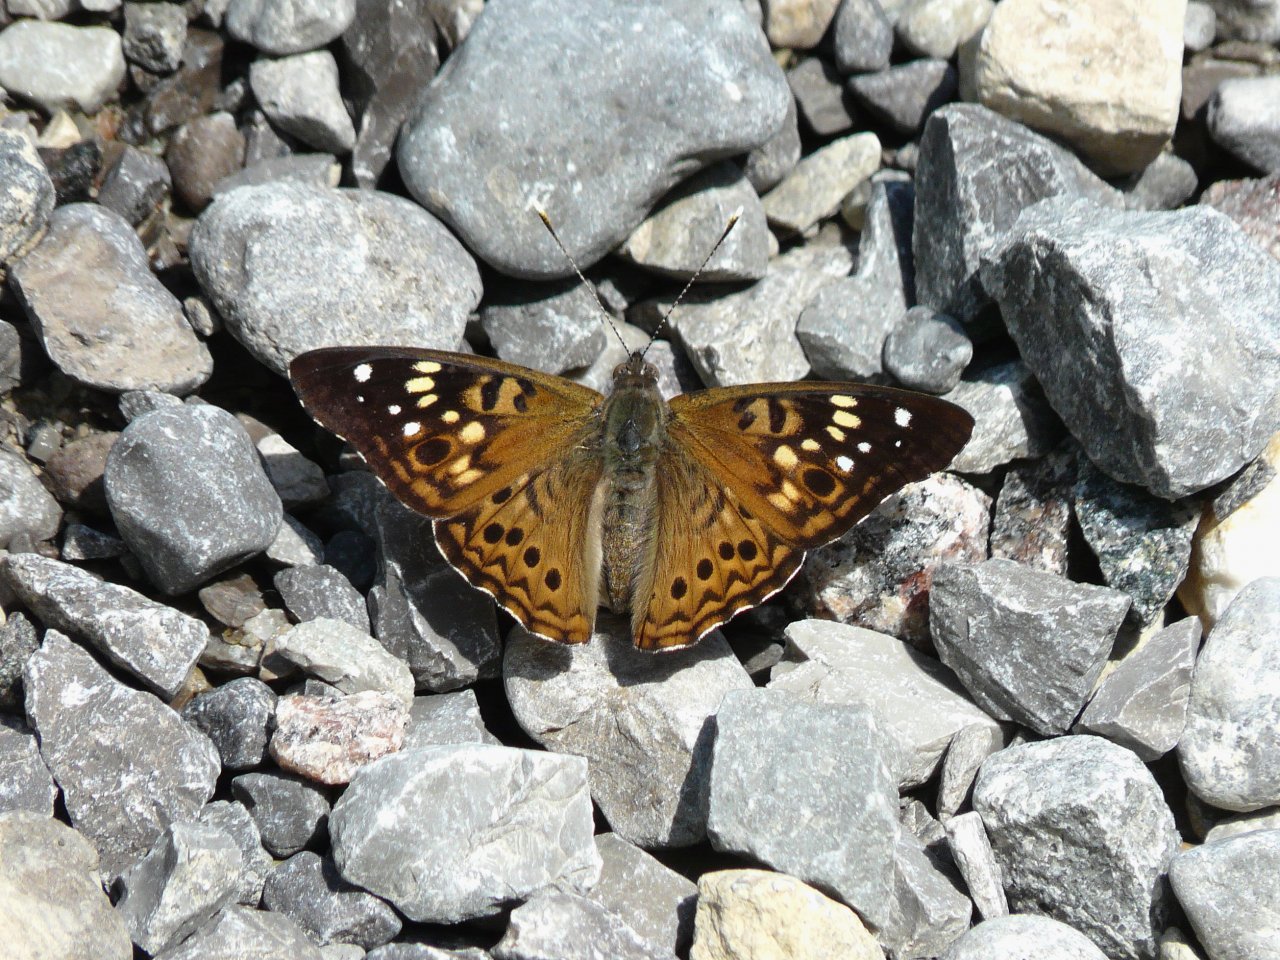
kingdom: Animalia
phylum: Arthropoda
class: Insecta
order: Lepidoptera
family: Nymphalidae
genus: Asterocampa
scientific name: Asterocampa celtis
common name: Hackberry Emperor
